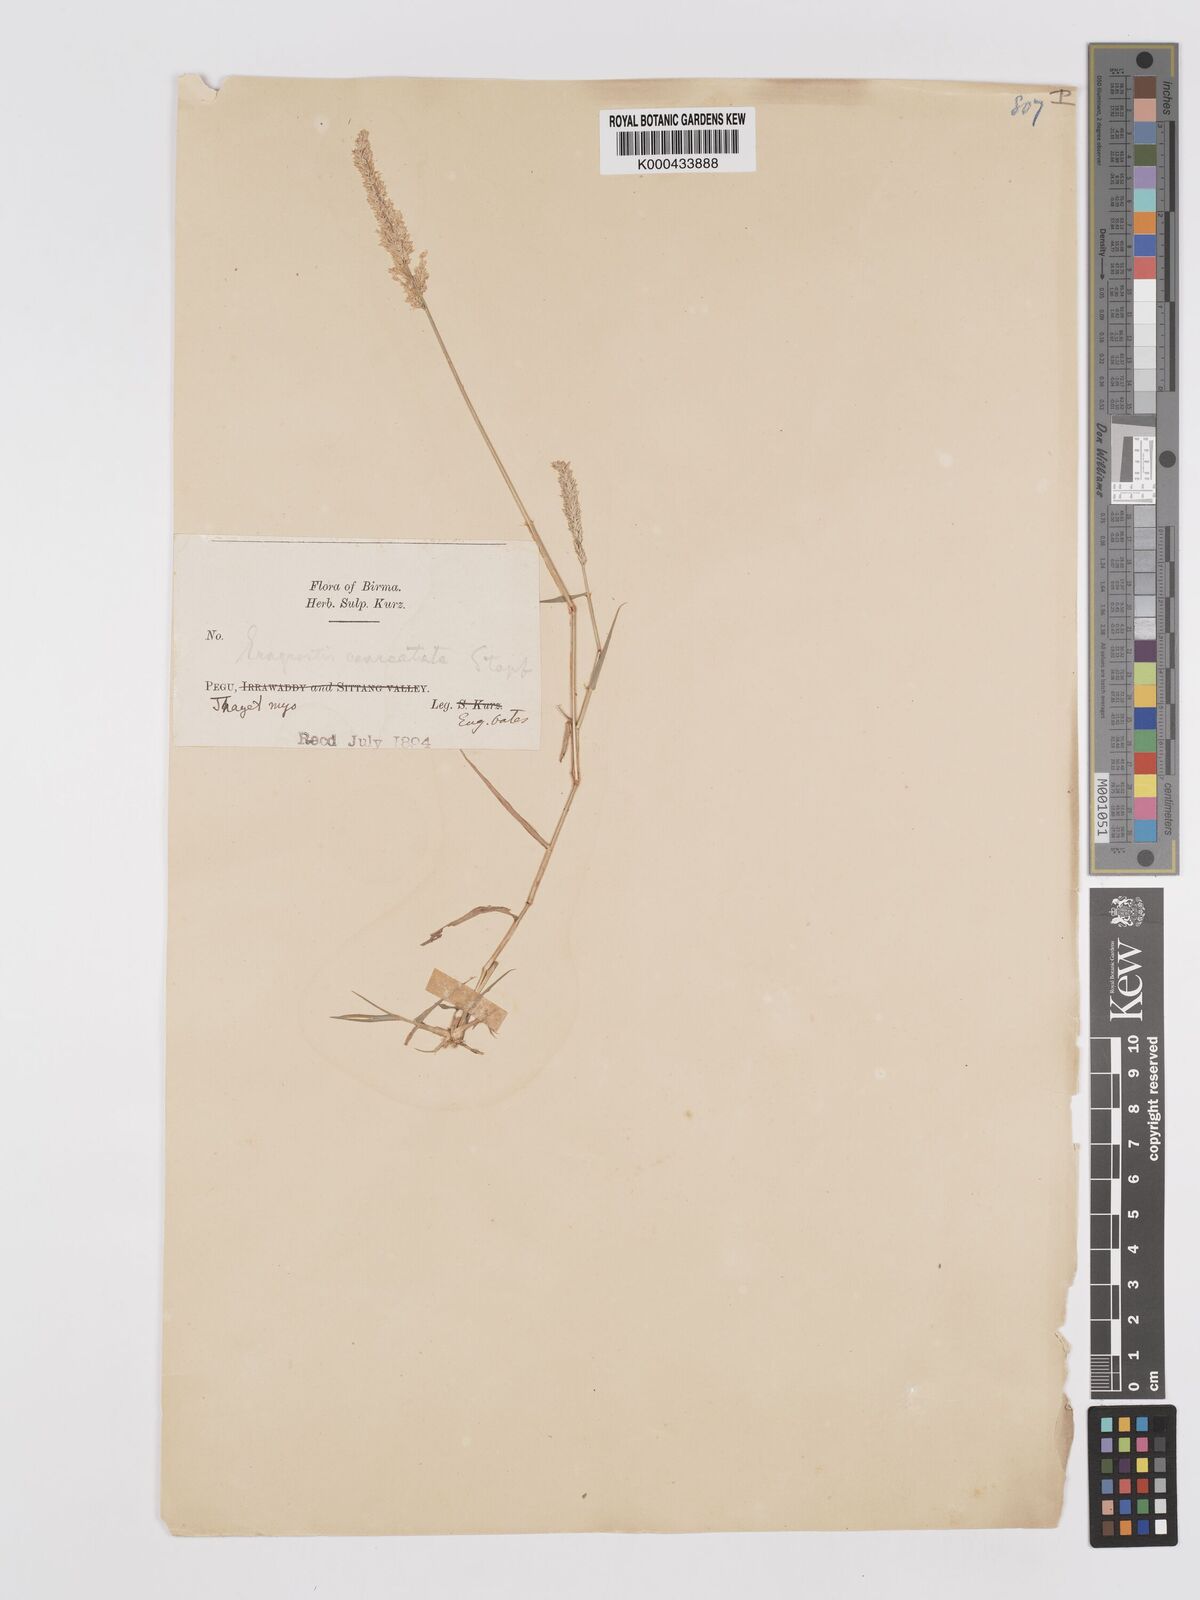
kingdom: Plantae
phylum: Tracheophyta
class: Liliopsida
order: Poales
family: Poaceae
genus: Eragrostis
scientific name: Eragrostis coarctata
